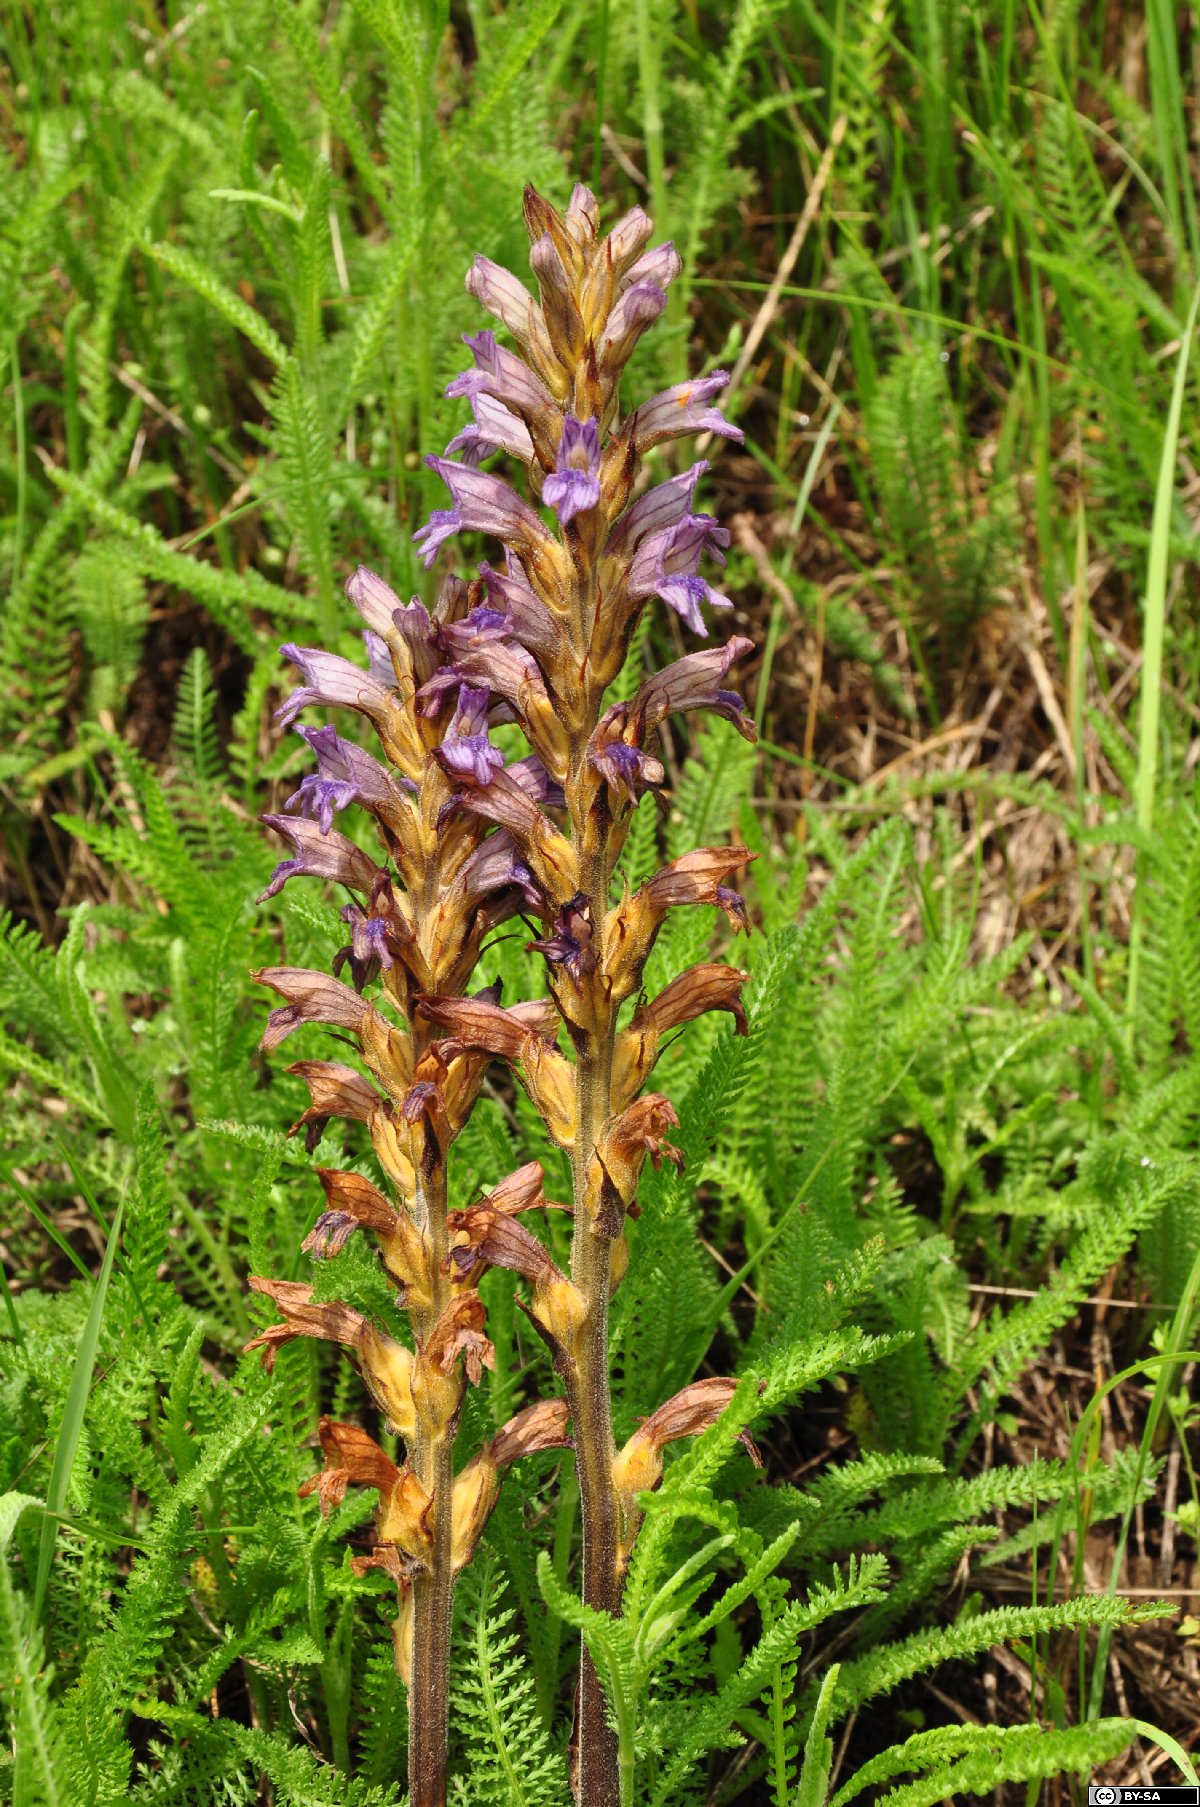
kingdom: Plantae
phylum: Tracheophyta
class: Magnoliopsida
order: Lamiales
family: Orobanchaceae
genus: Phelipanche
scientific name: Phelipanche purpurea
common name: Purple broomrape
